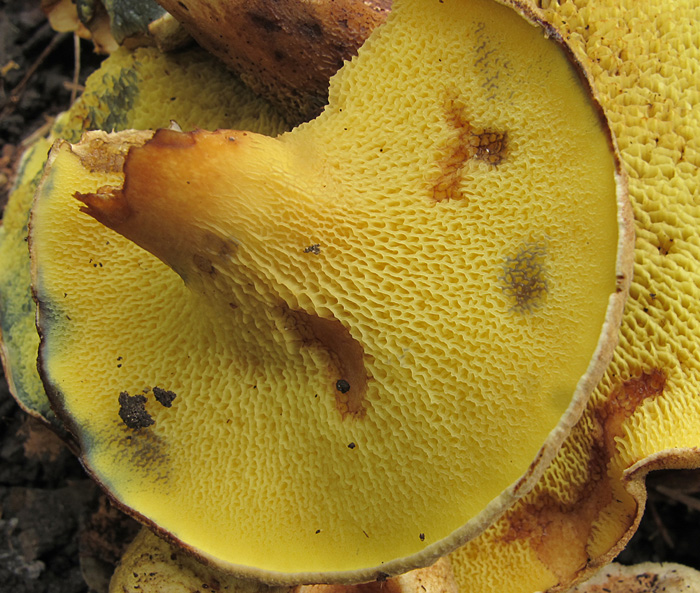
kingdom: Fungi
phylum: Basidiomycota
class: Agaricomycetes
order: Boletales
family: Paxillaceae
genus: Gyrodon
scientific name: Gyrodon lividus
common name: ellerørhat
